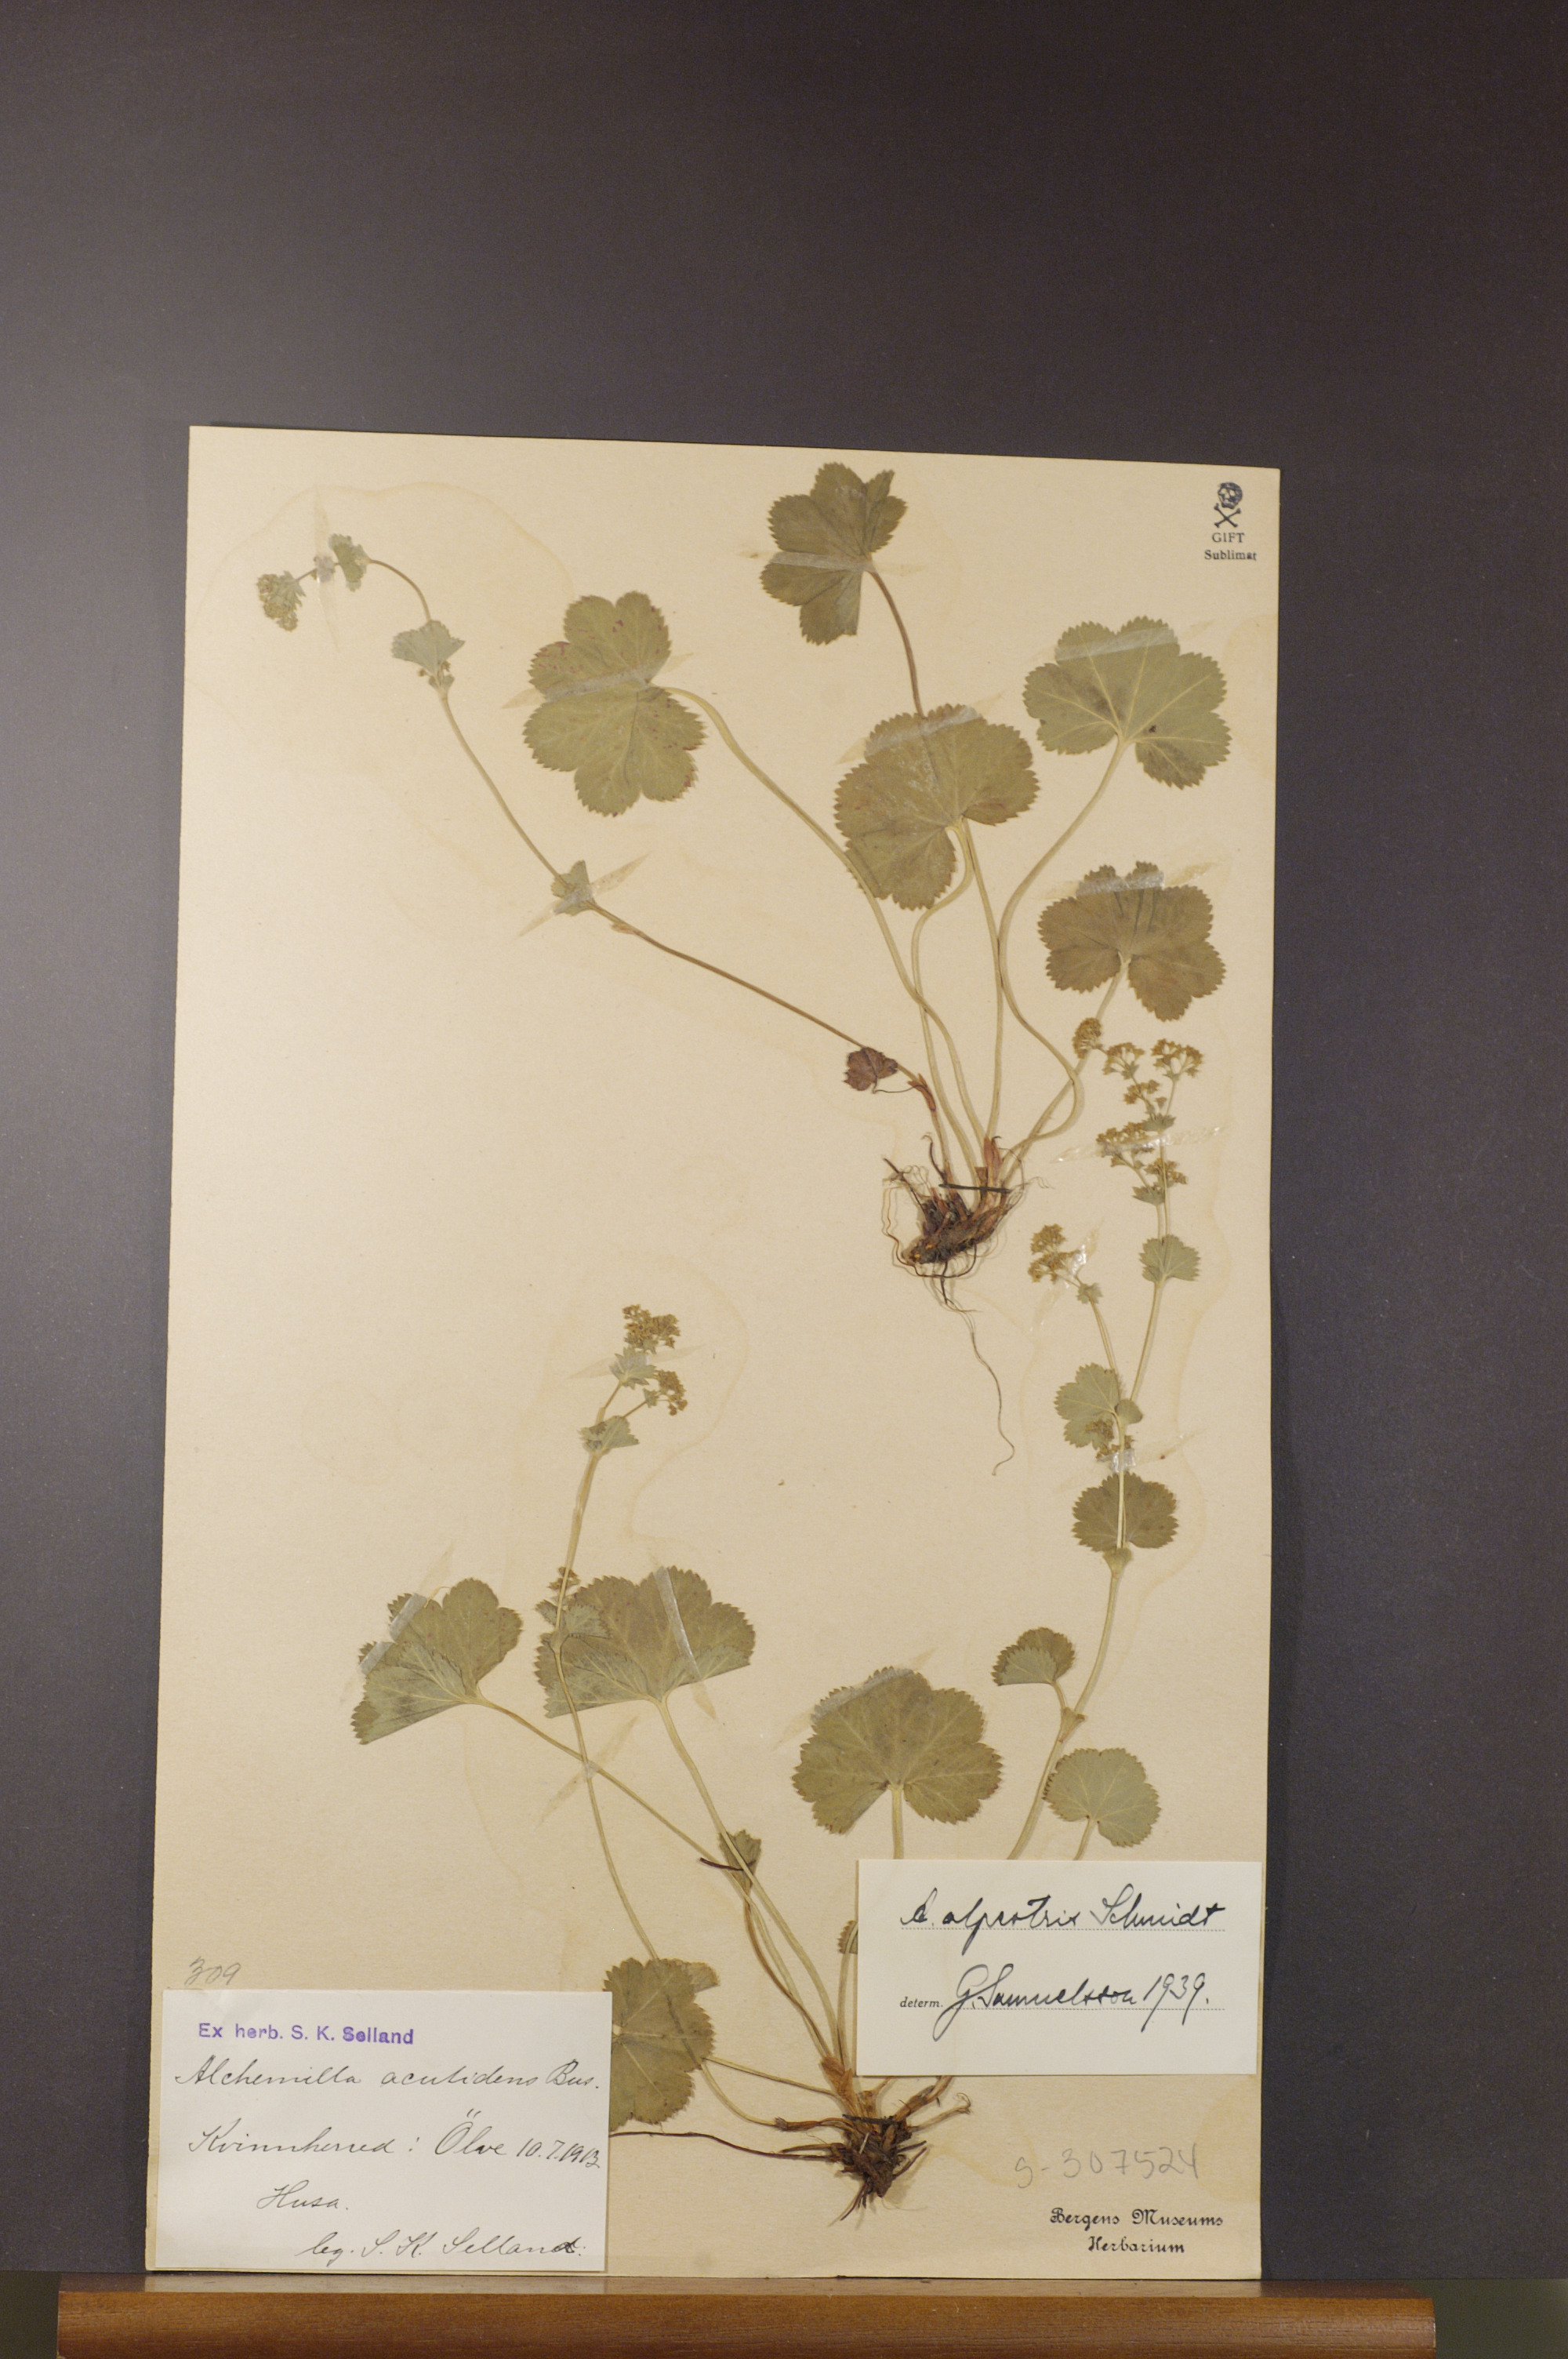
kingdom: Plantae
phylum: Tracheophyta
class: Magnoliopsida
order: Rosales
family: Rosaceae
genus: Alchemilla
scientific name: Alchemilla glabra
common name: Smooth lady's-mantle
